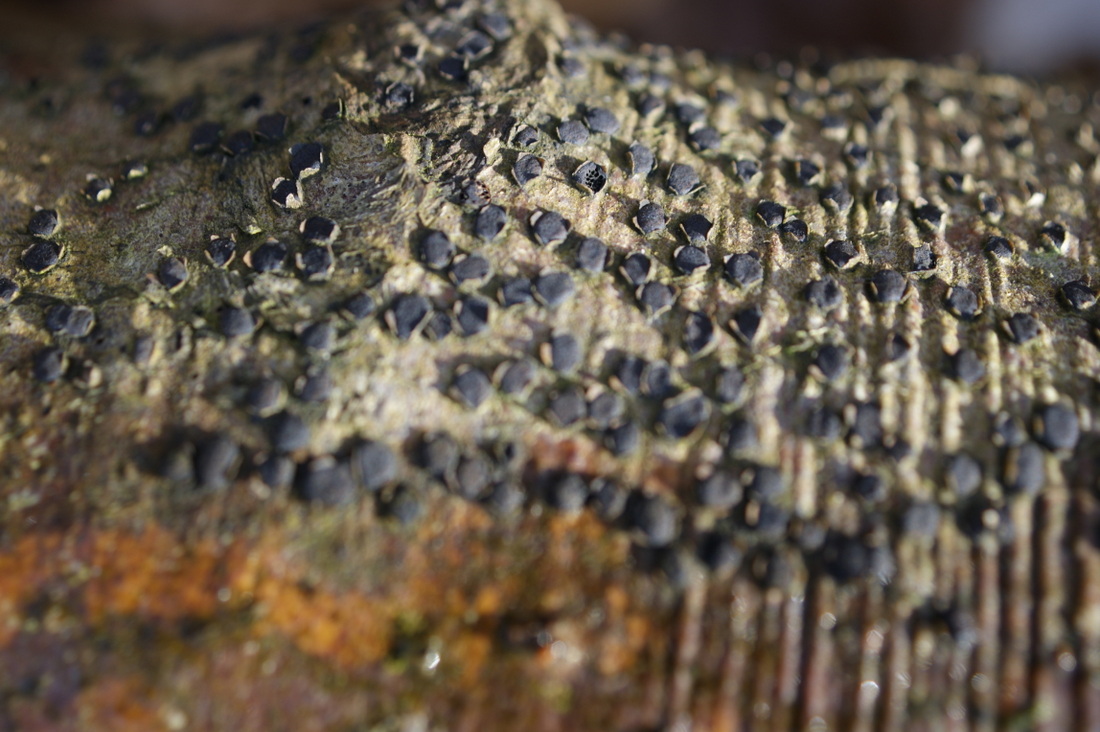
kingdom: Fungi
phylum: Ascomycota
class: Sordariomycetes
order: Xylariales
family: Diatrypaceae
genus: Diatrype
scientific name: Diatrype disciformis
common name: kant-kulskorpe
